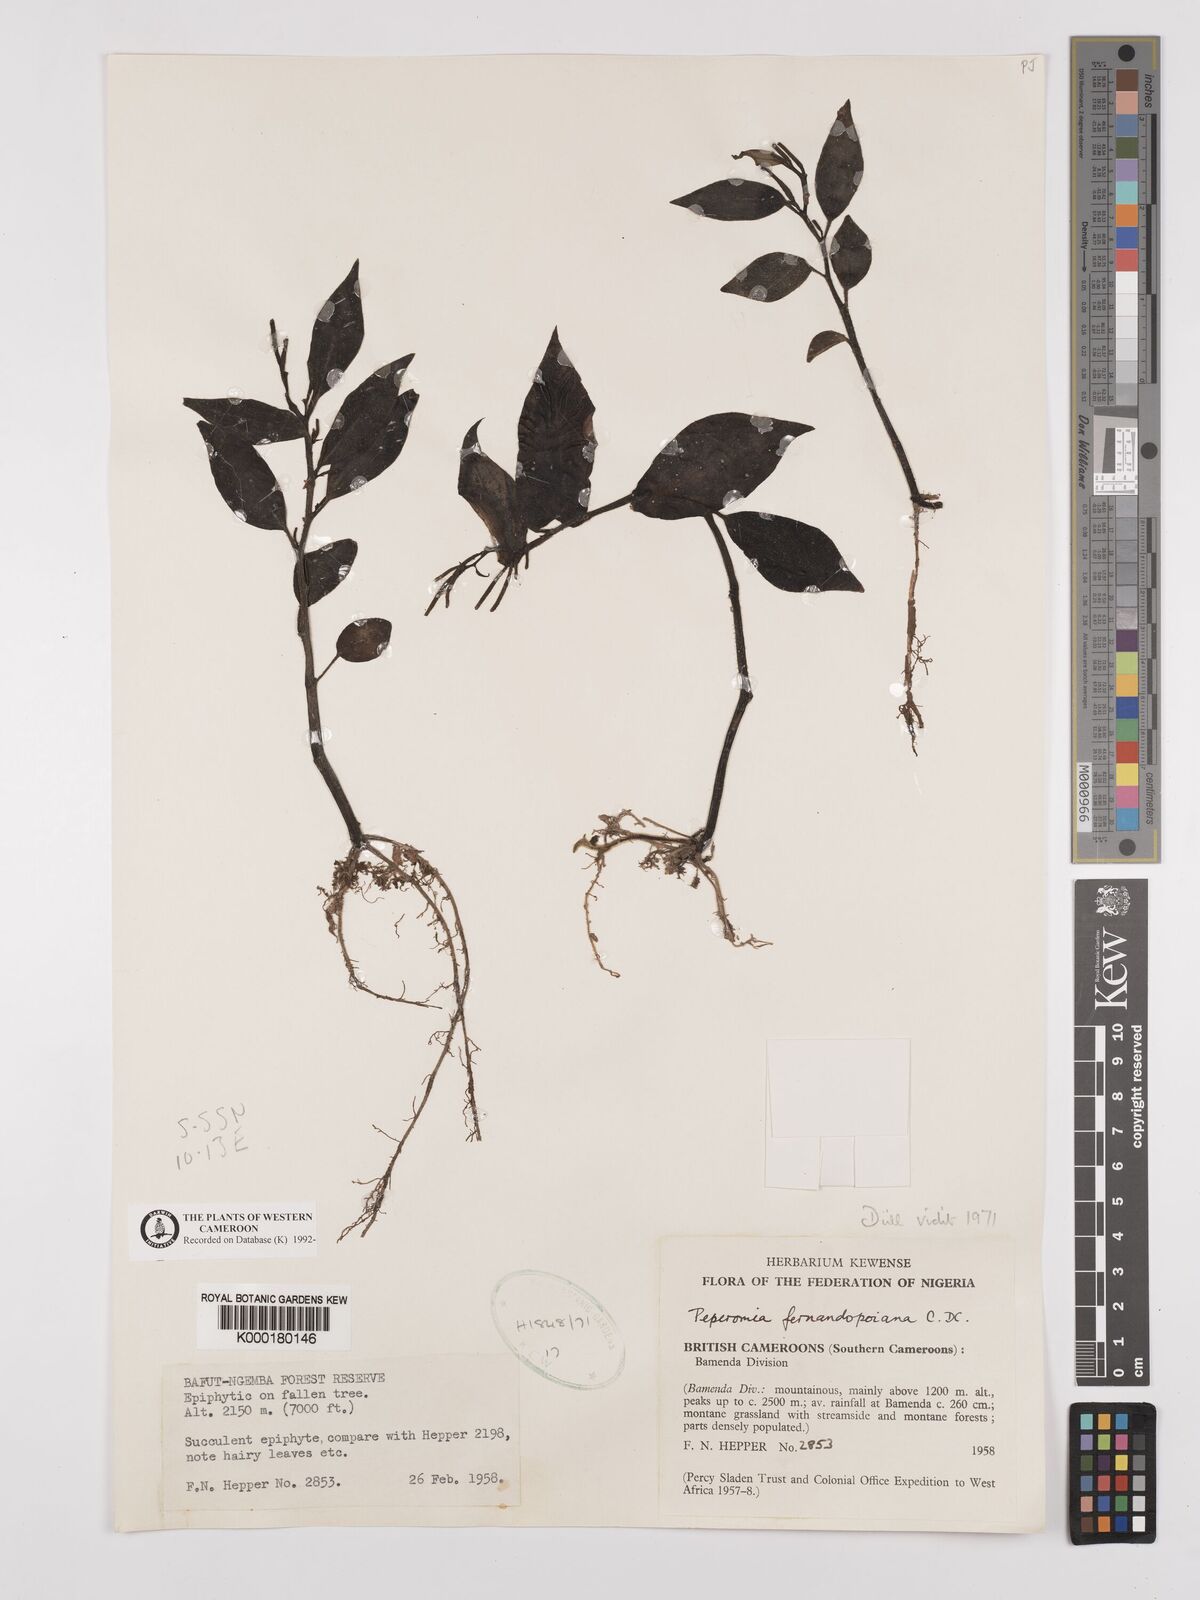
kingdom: Plantae
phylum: Tracheophyta
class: Magnoliopsida
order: Piperales
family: Piperaceae
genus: Peperomia
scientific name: Peperomia fernandopoiana
